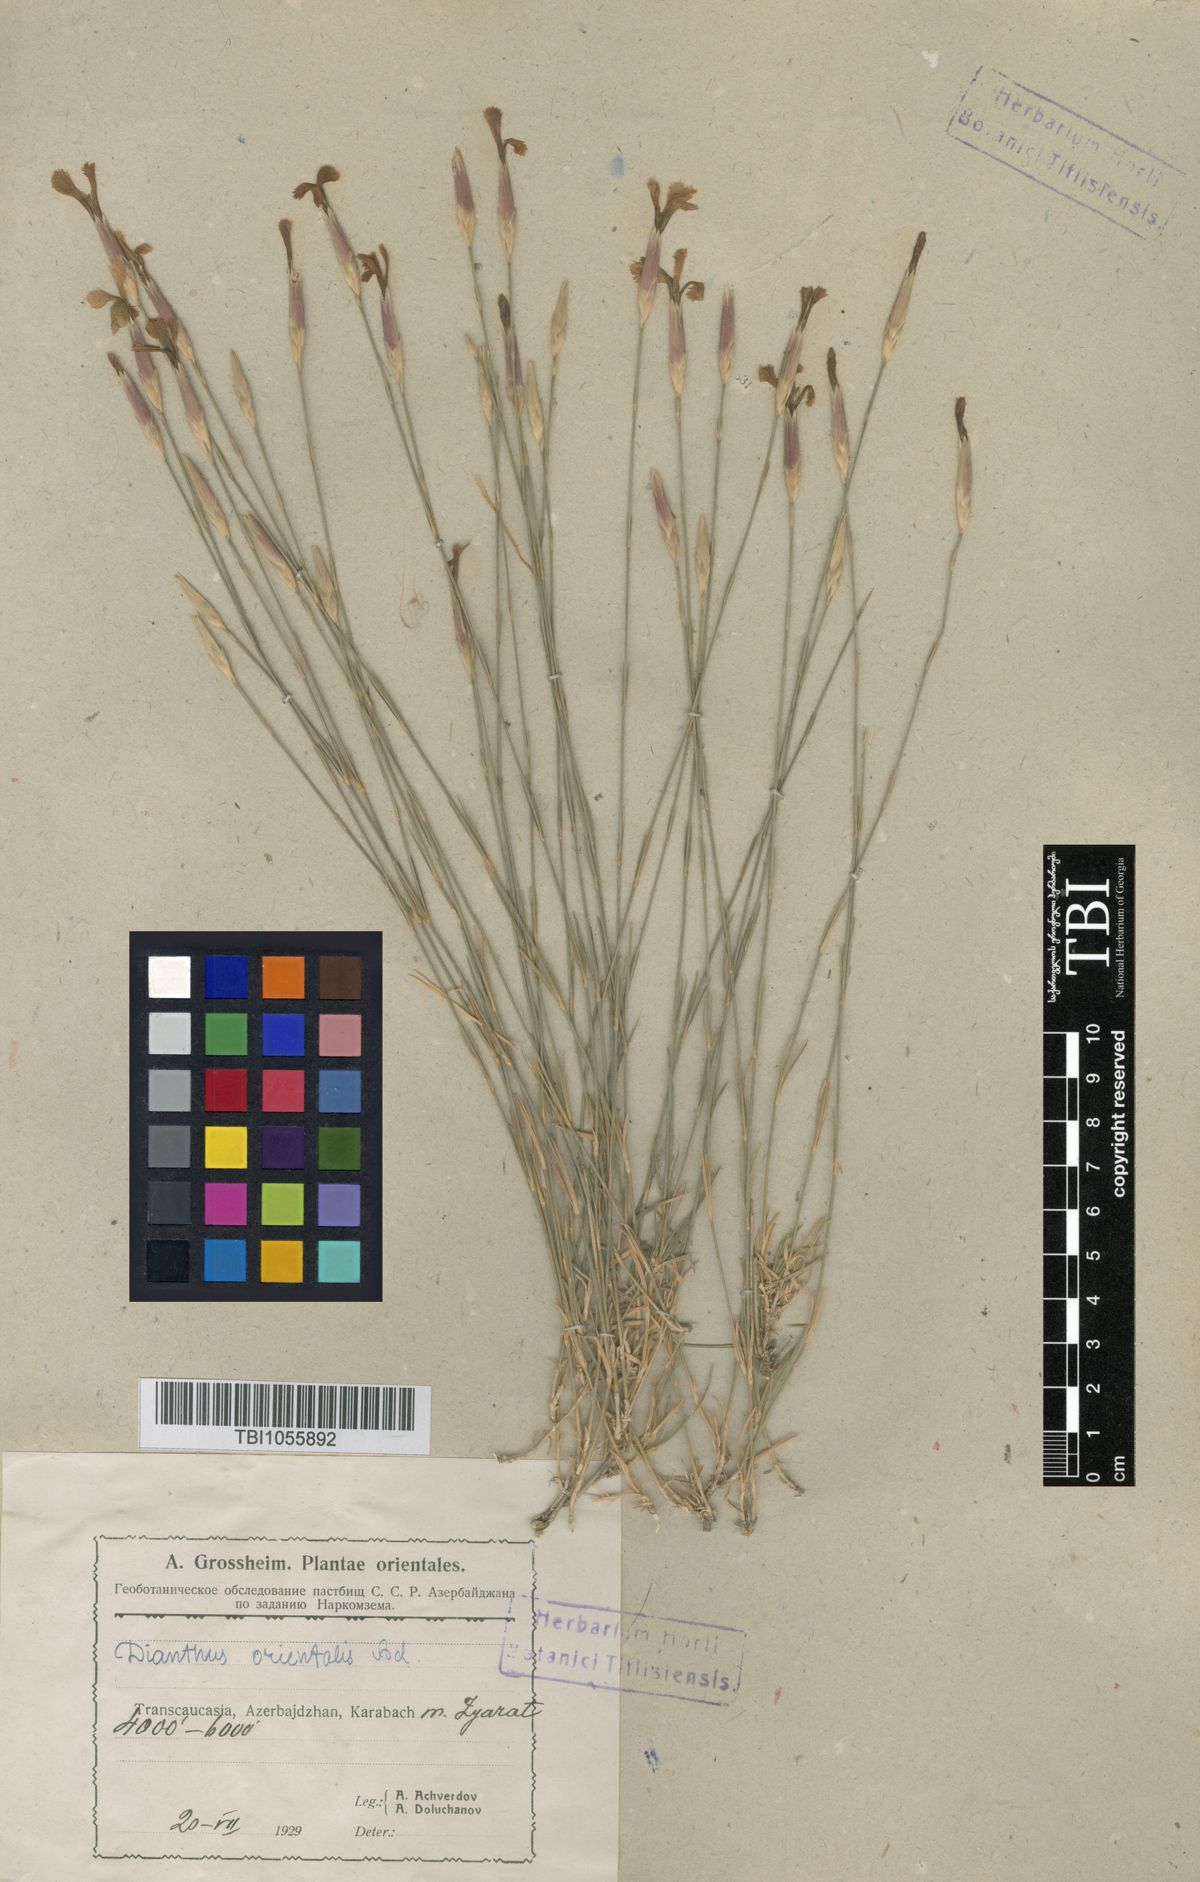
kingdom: Plantae
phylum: Tracheophyta
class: Magnoliopsida
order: Caryophyllales
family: Caryophyllaceae
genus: Dianthus
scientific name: Dianthus orientalis
